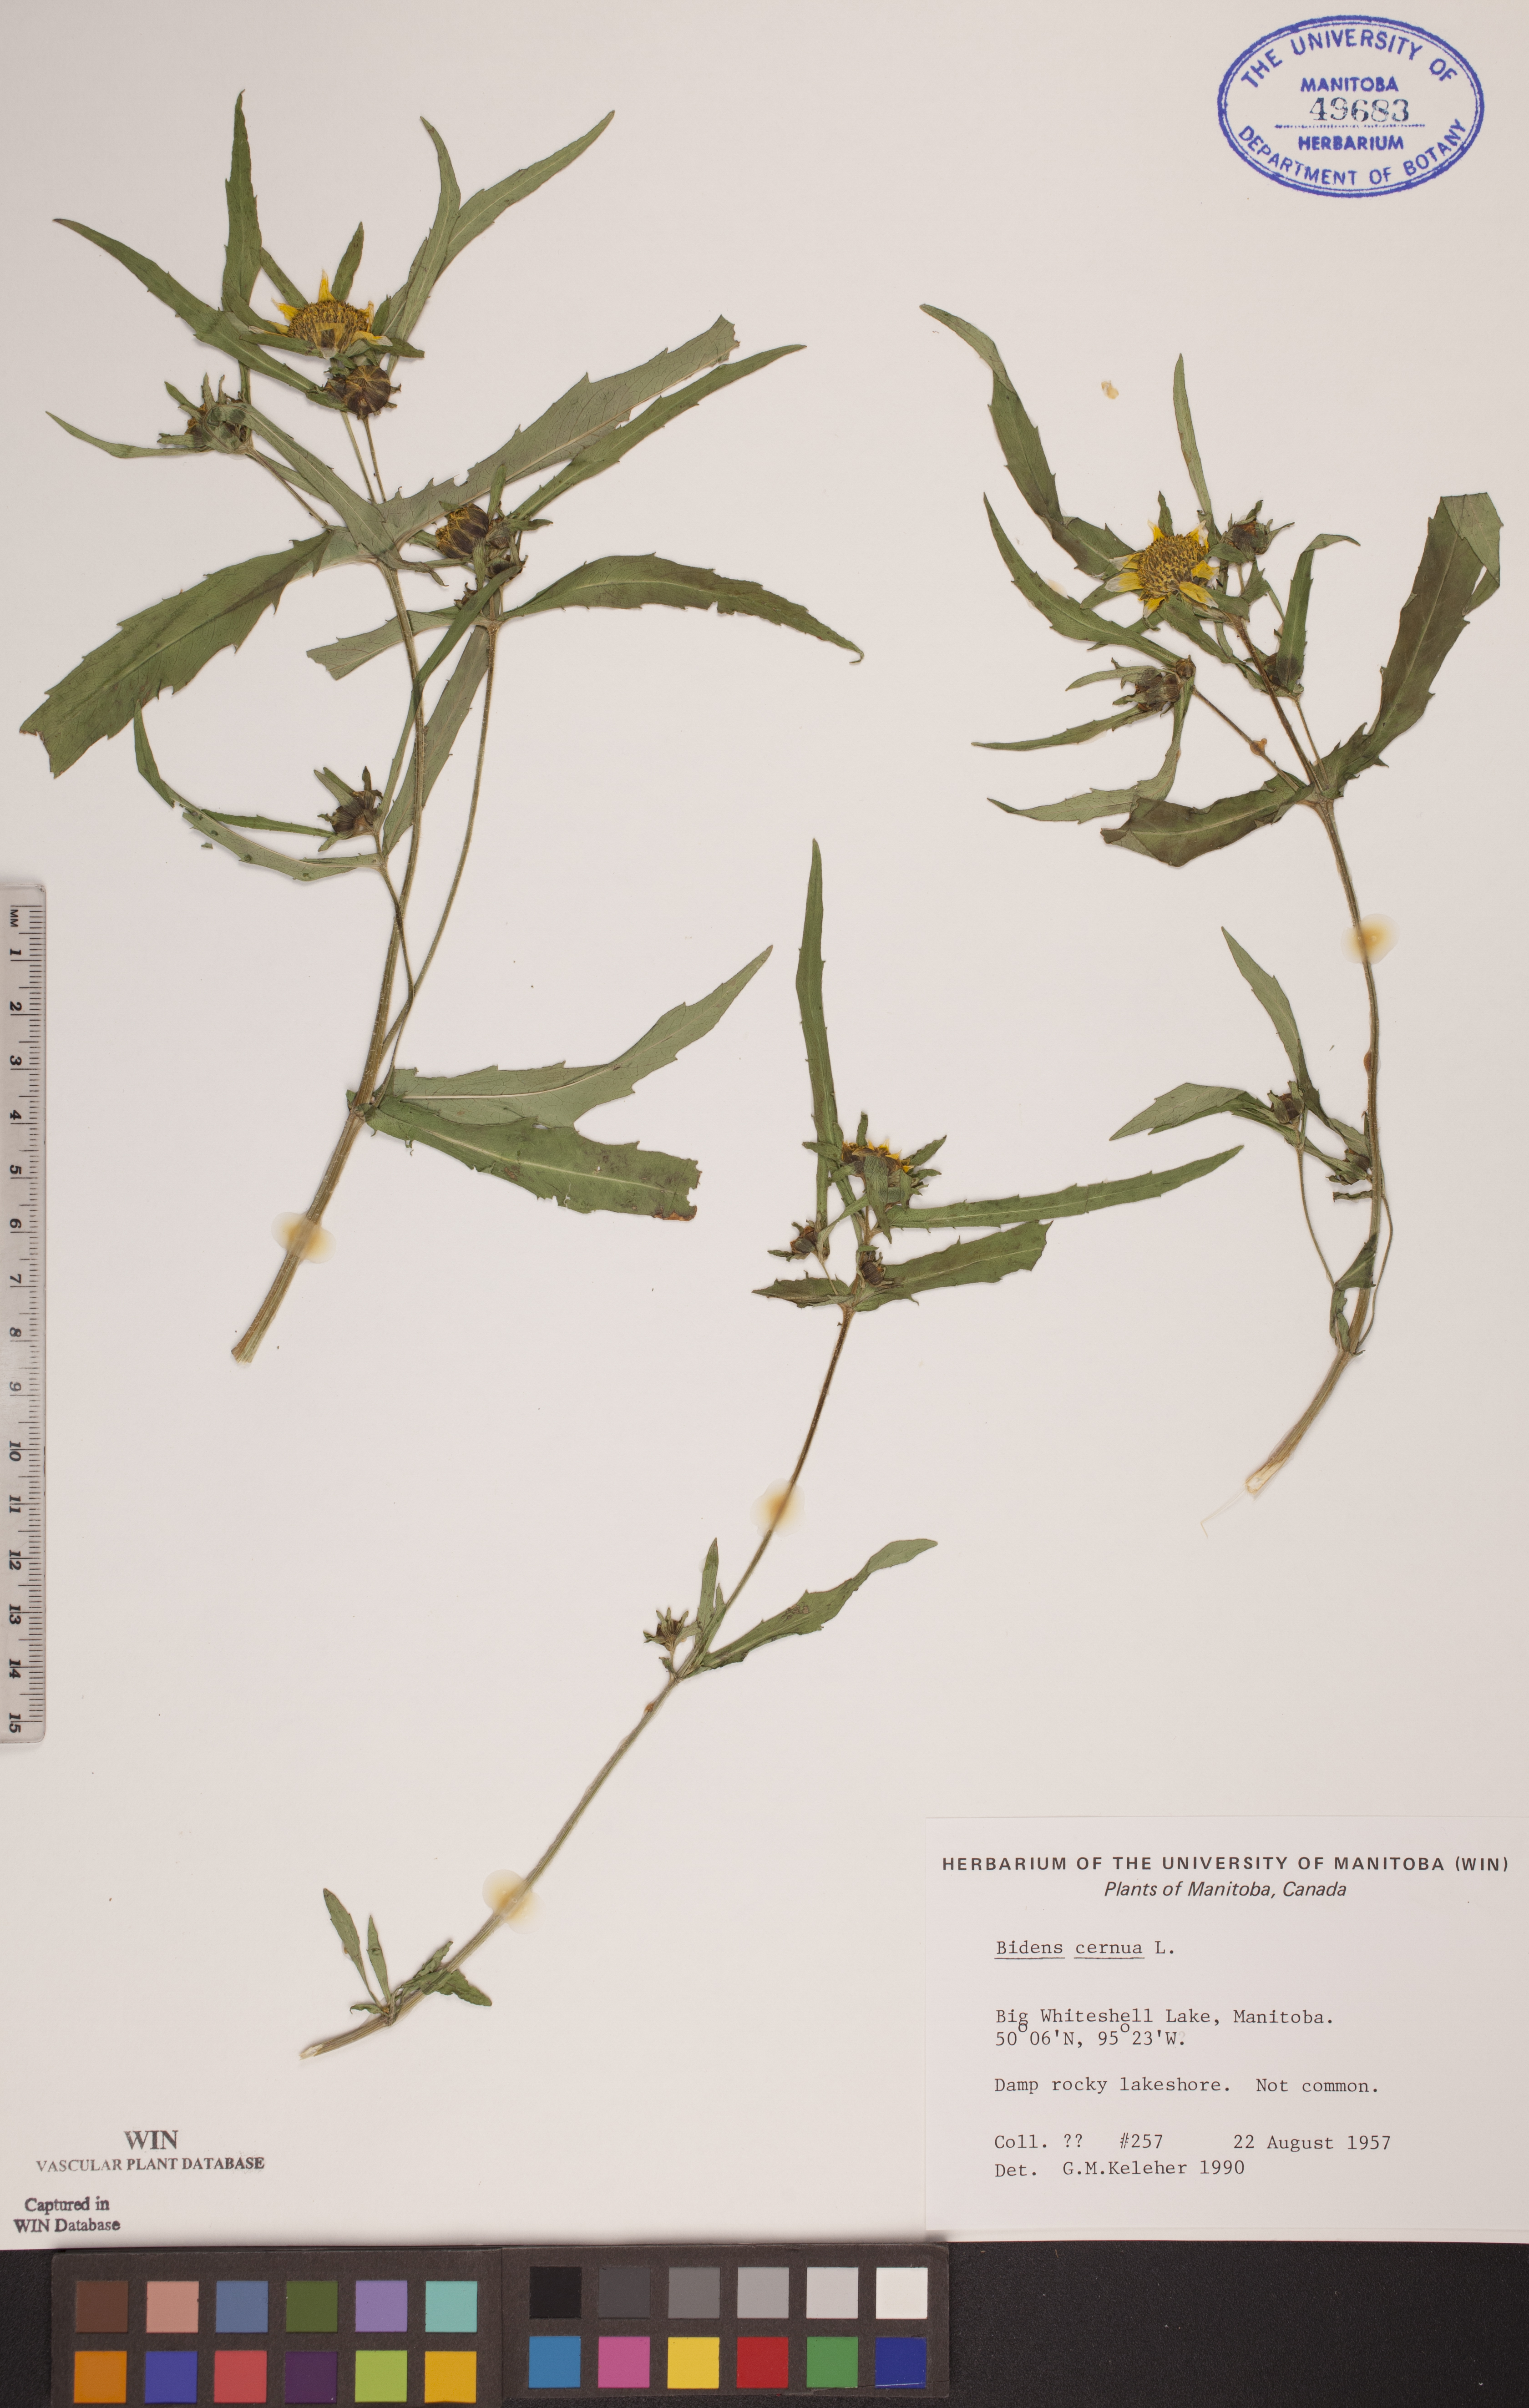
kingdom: Plantae
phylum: Tracheophyta
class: Magnoliopsida
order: Asterales
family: Asteraceae
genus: Bidens
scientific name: Bidens cernua
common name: Nodding bur-marigold
